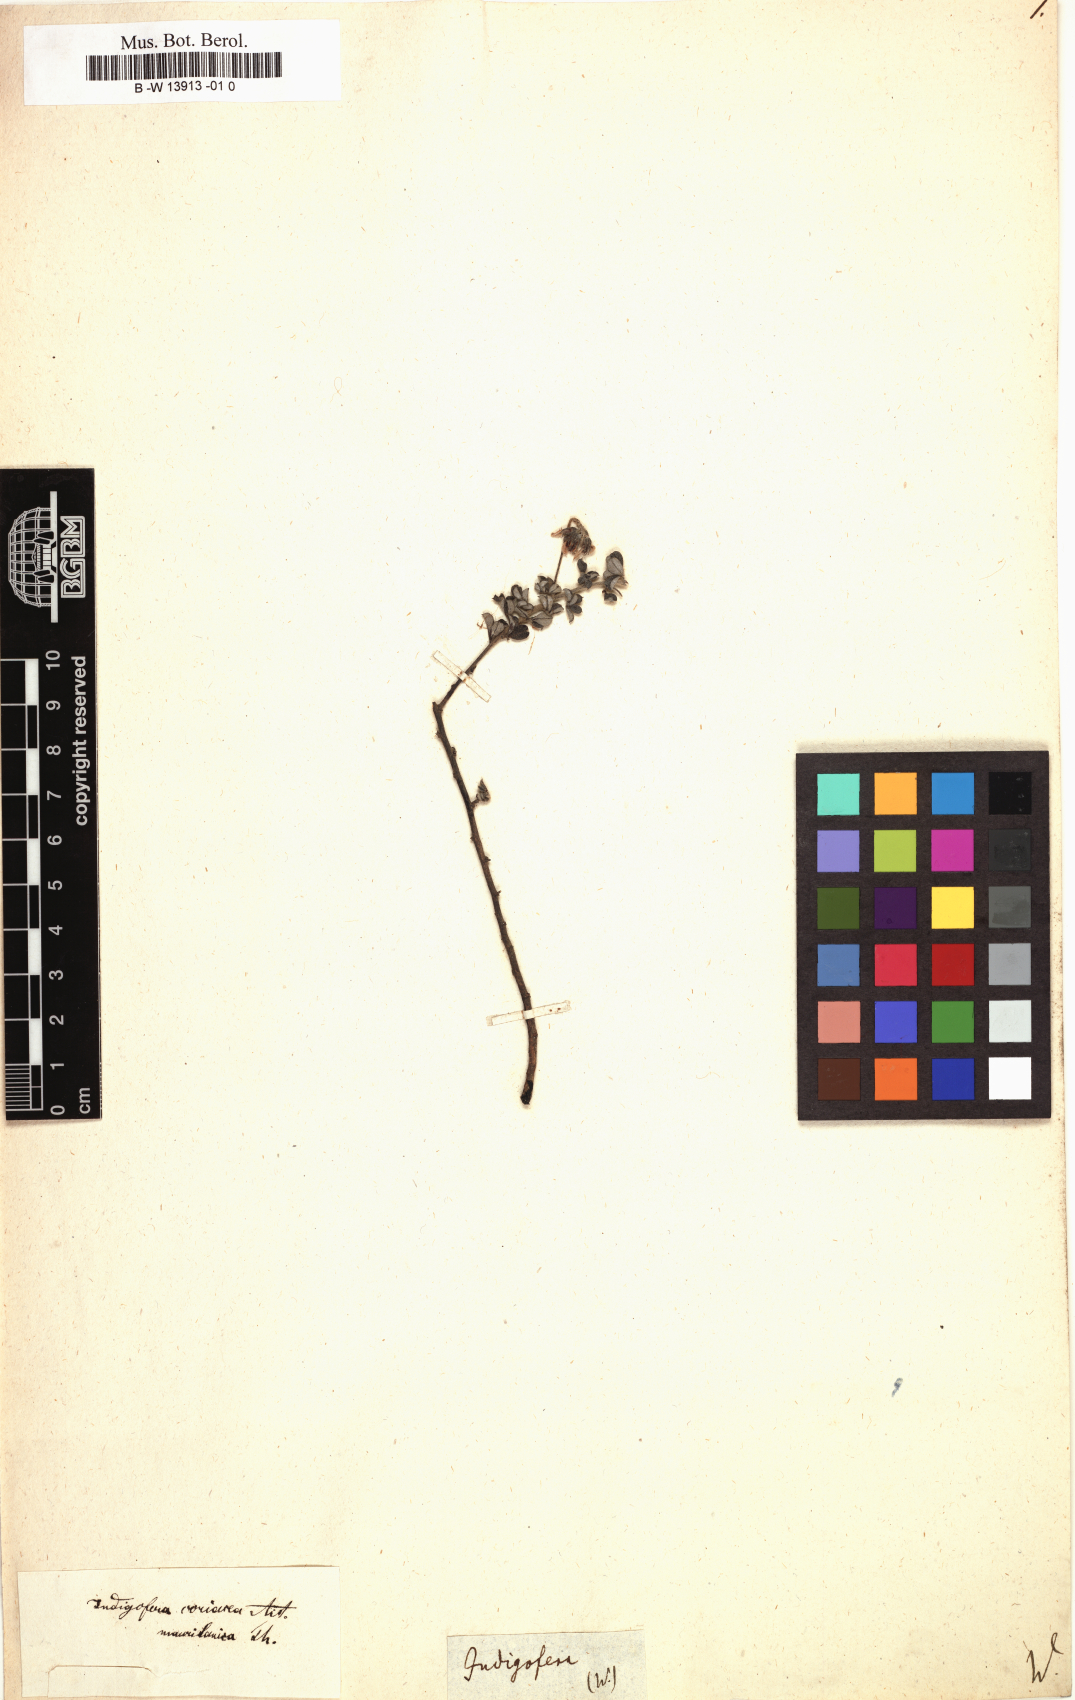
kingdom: Plantae
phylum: Tracheophyta
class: Magnoliopsida
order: Fabales
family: Fabaceae
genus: Indigofera
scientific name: Indigofera
